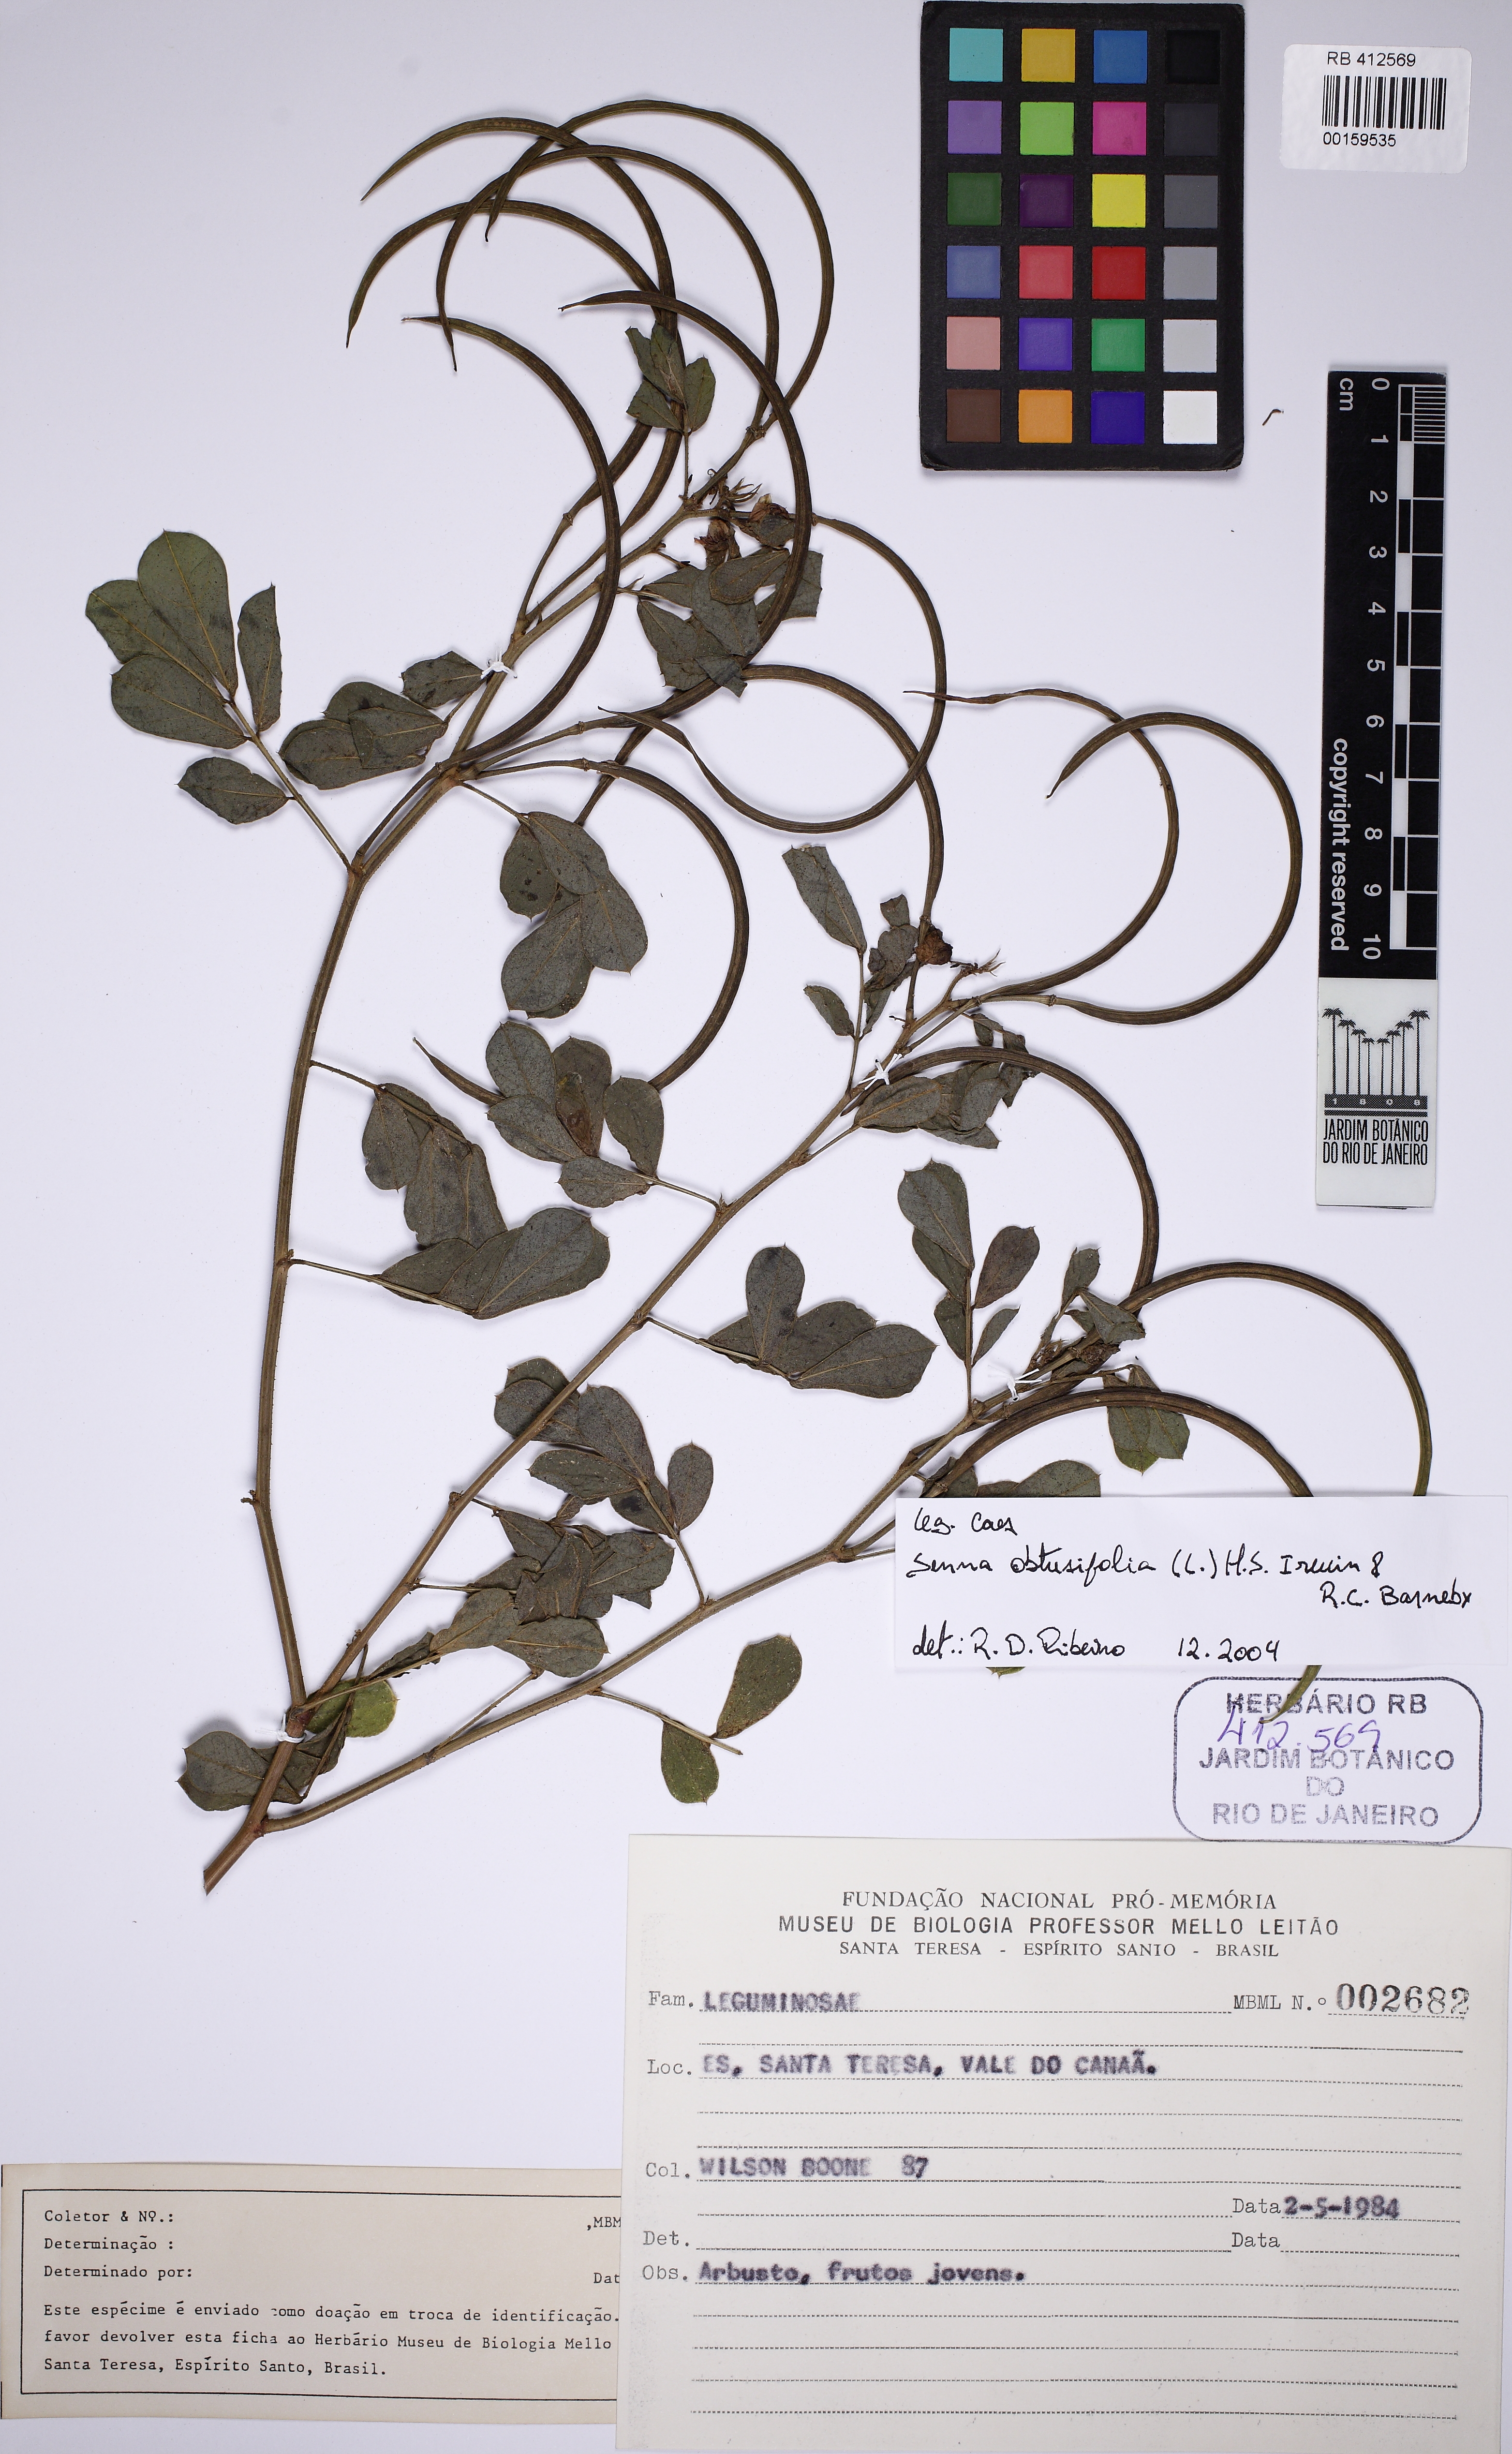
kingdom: Plantae
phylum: Tracheophyta
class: Magnoliopsida
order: Fabales
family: Fabaceae
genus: Senna
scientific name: Senna obtusifolia
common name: Java-bean
